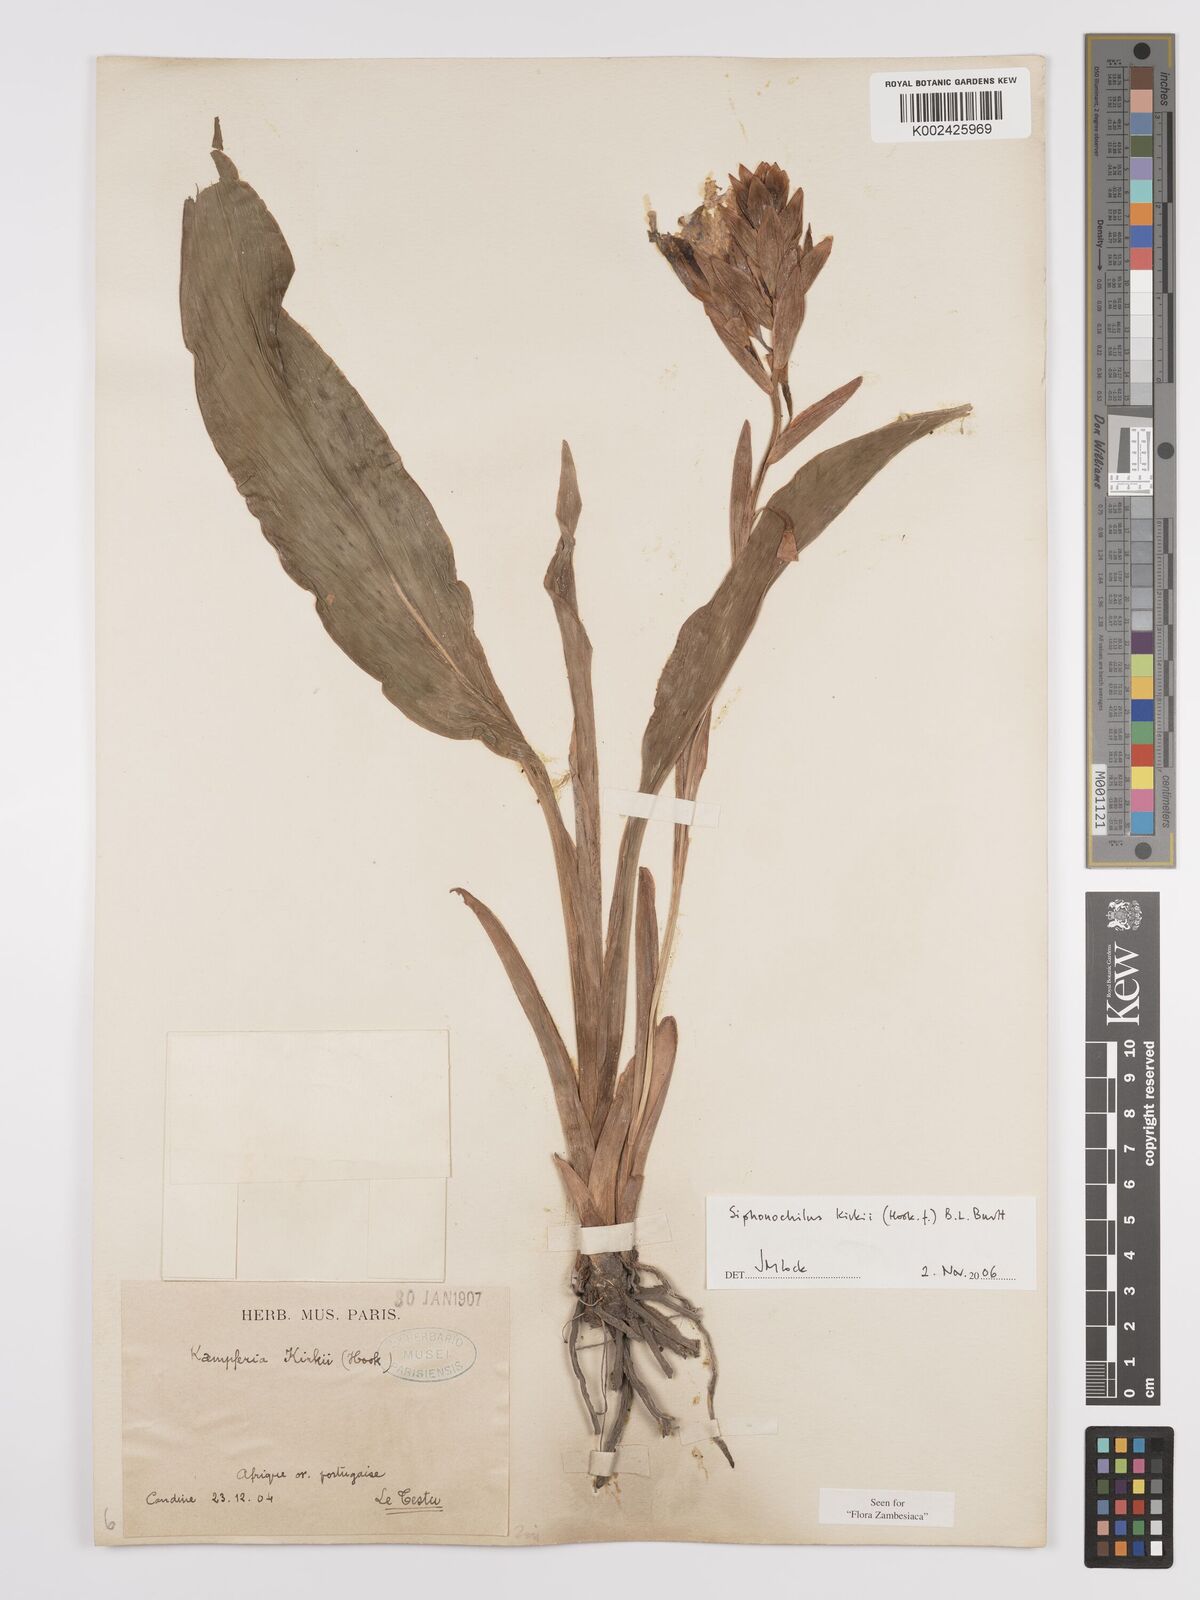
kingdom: Plantae
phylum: Tracheophyta
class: Liliopsida
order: Zingiberales
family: Zingiberaceae
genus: Siphonochilus
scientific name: Siphonochilus kirkii
